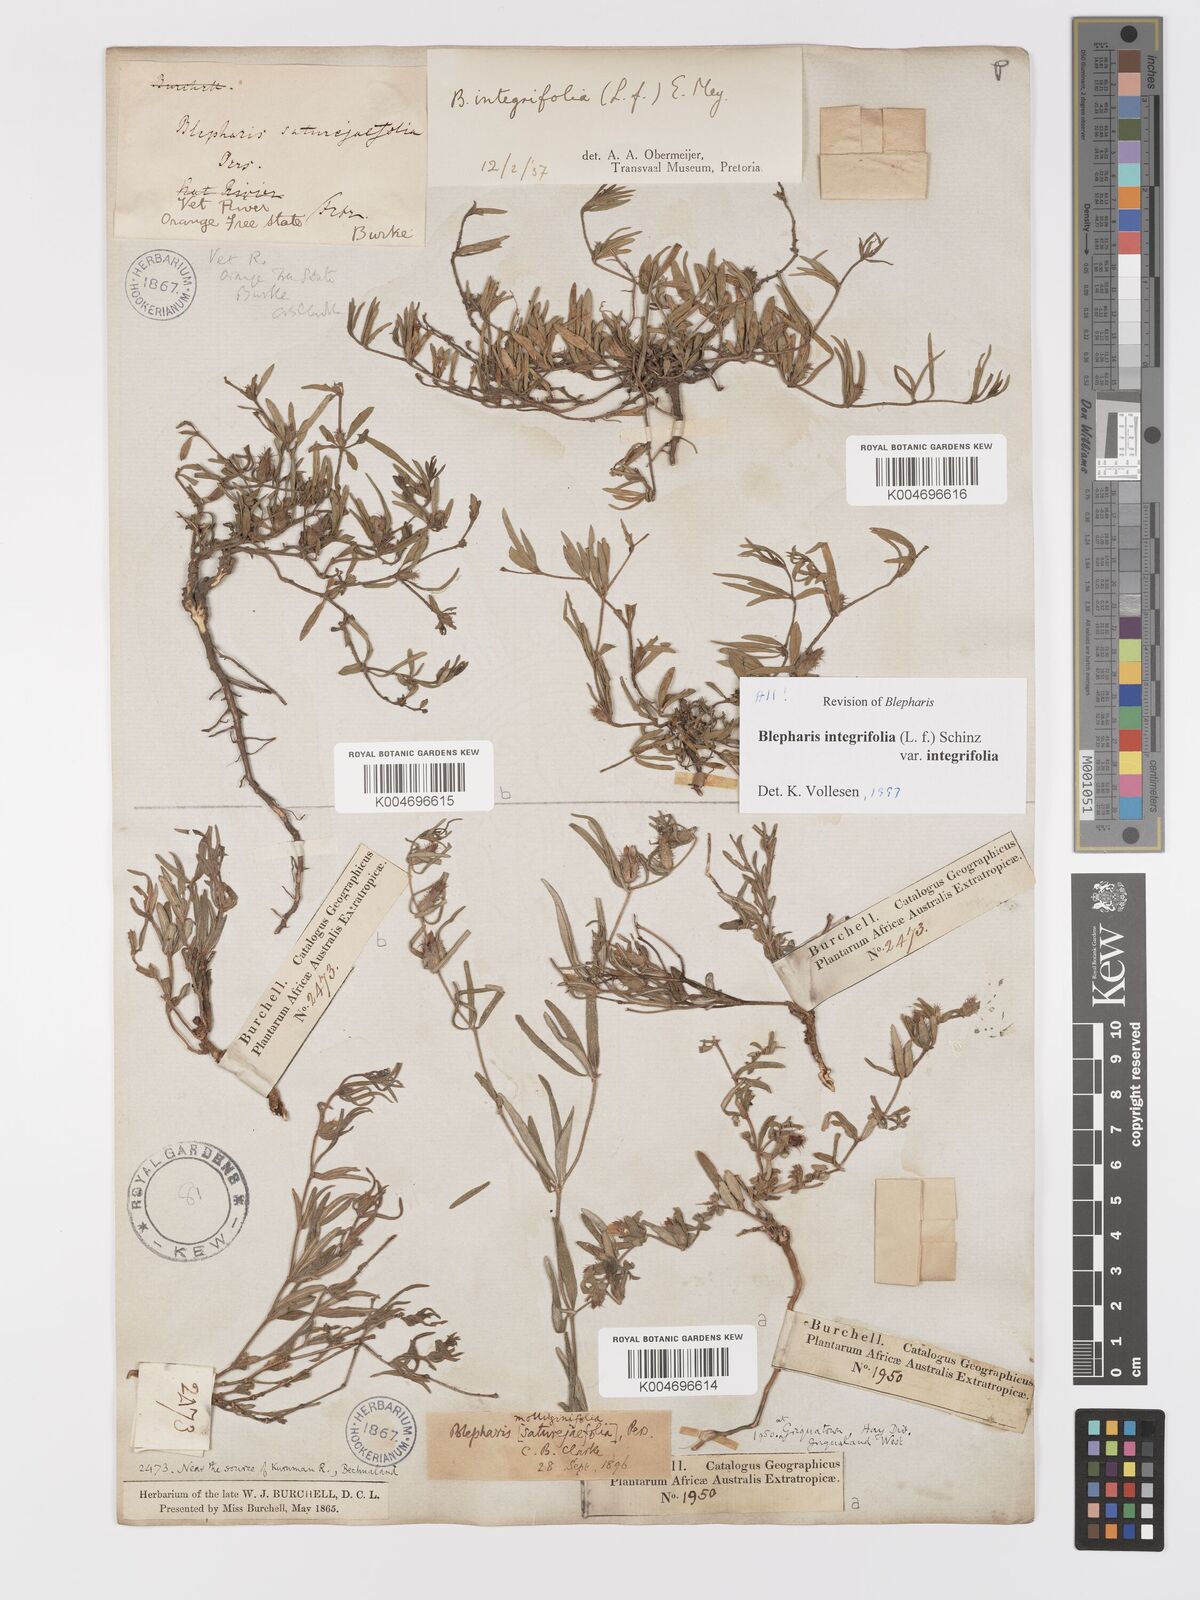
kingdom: Plantae
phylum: Tracheophyta
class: Magnoliopsida
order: Lamiales
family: Acanthaceae
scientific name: Acanthaceae
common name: Acanthaceae
